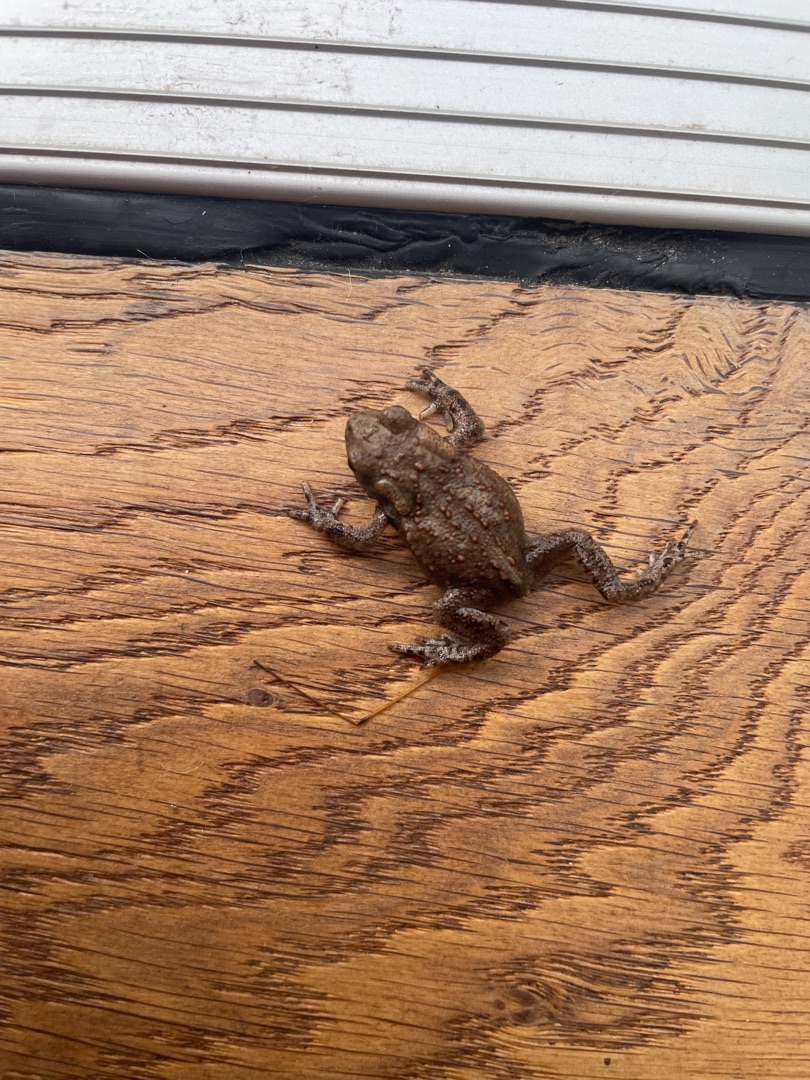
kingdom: Animalia
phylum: Chordata
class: Amphibia
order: Anura
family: Bufonidae
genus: Bufo
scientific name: Bufo bufo
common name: Skrubtudse
